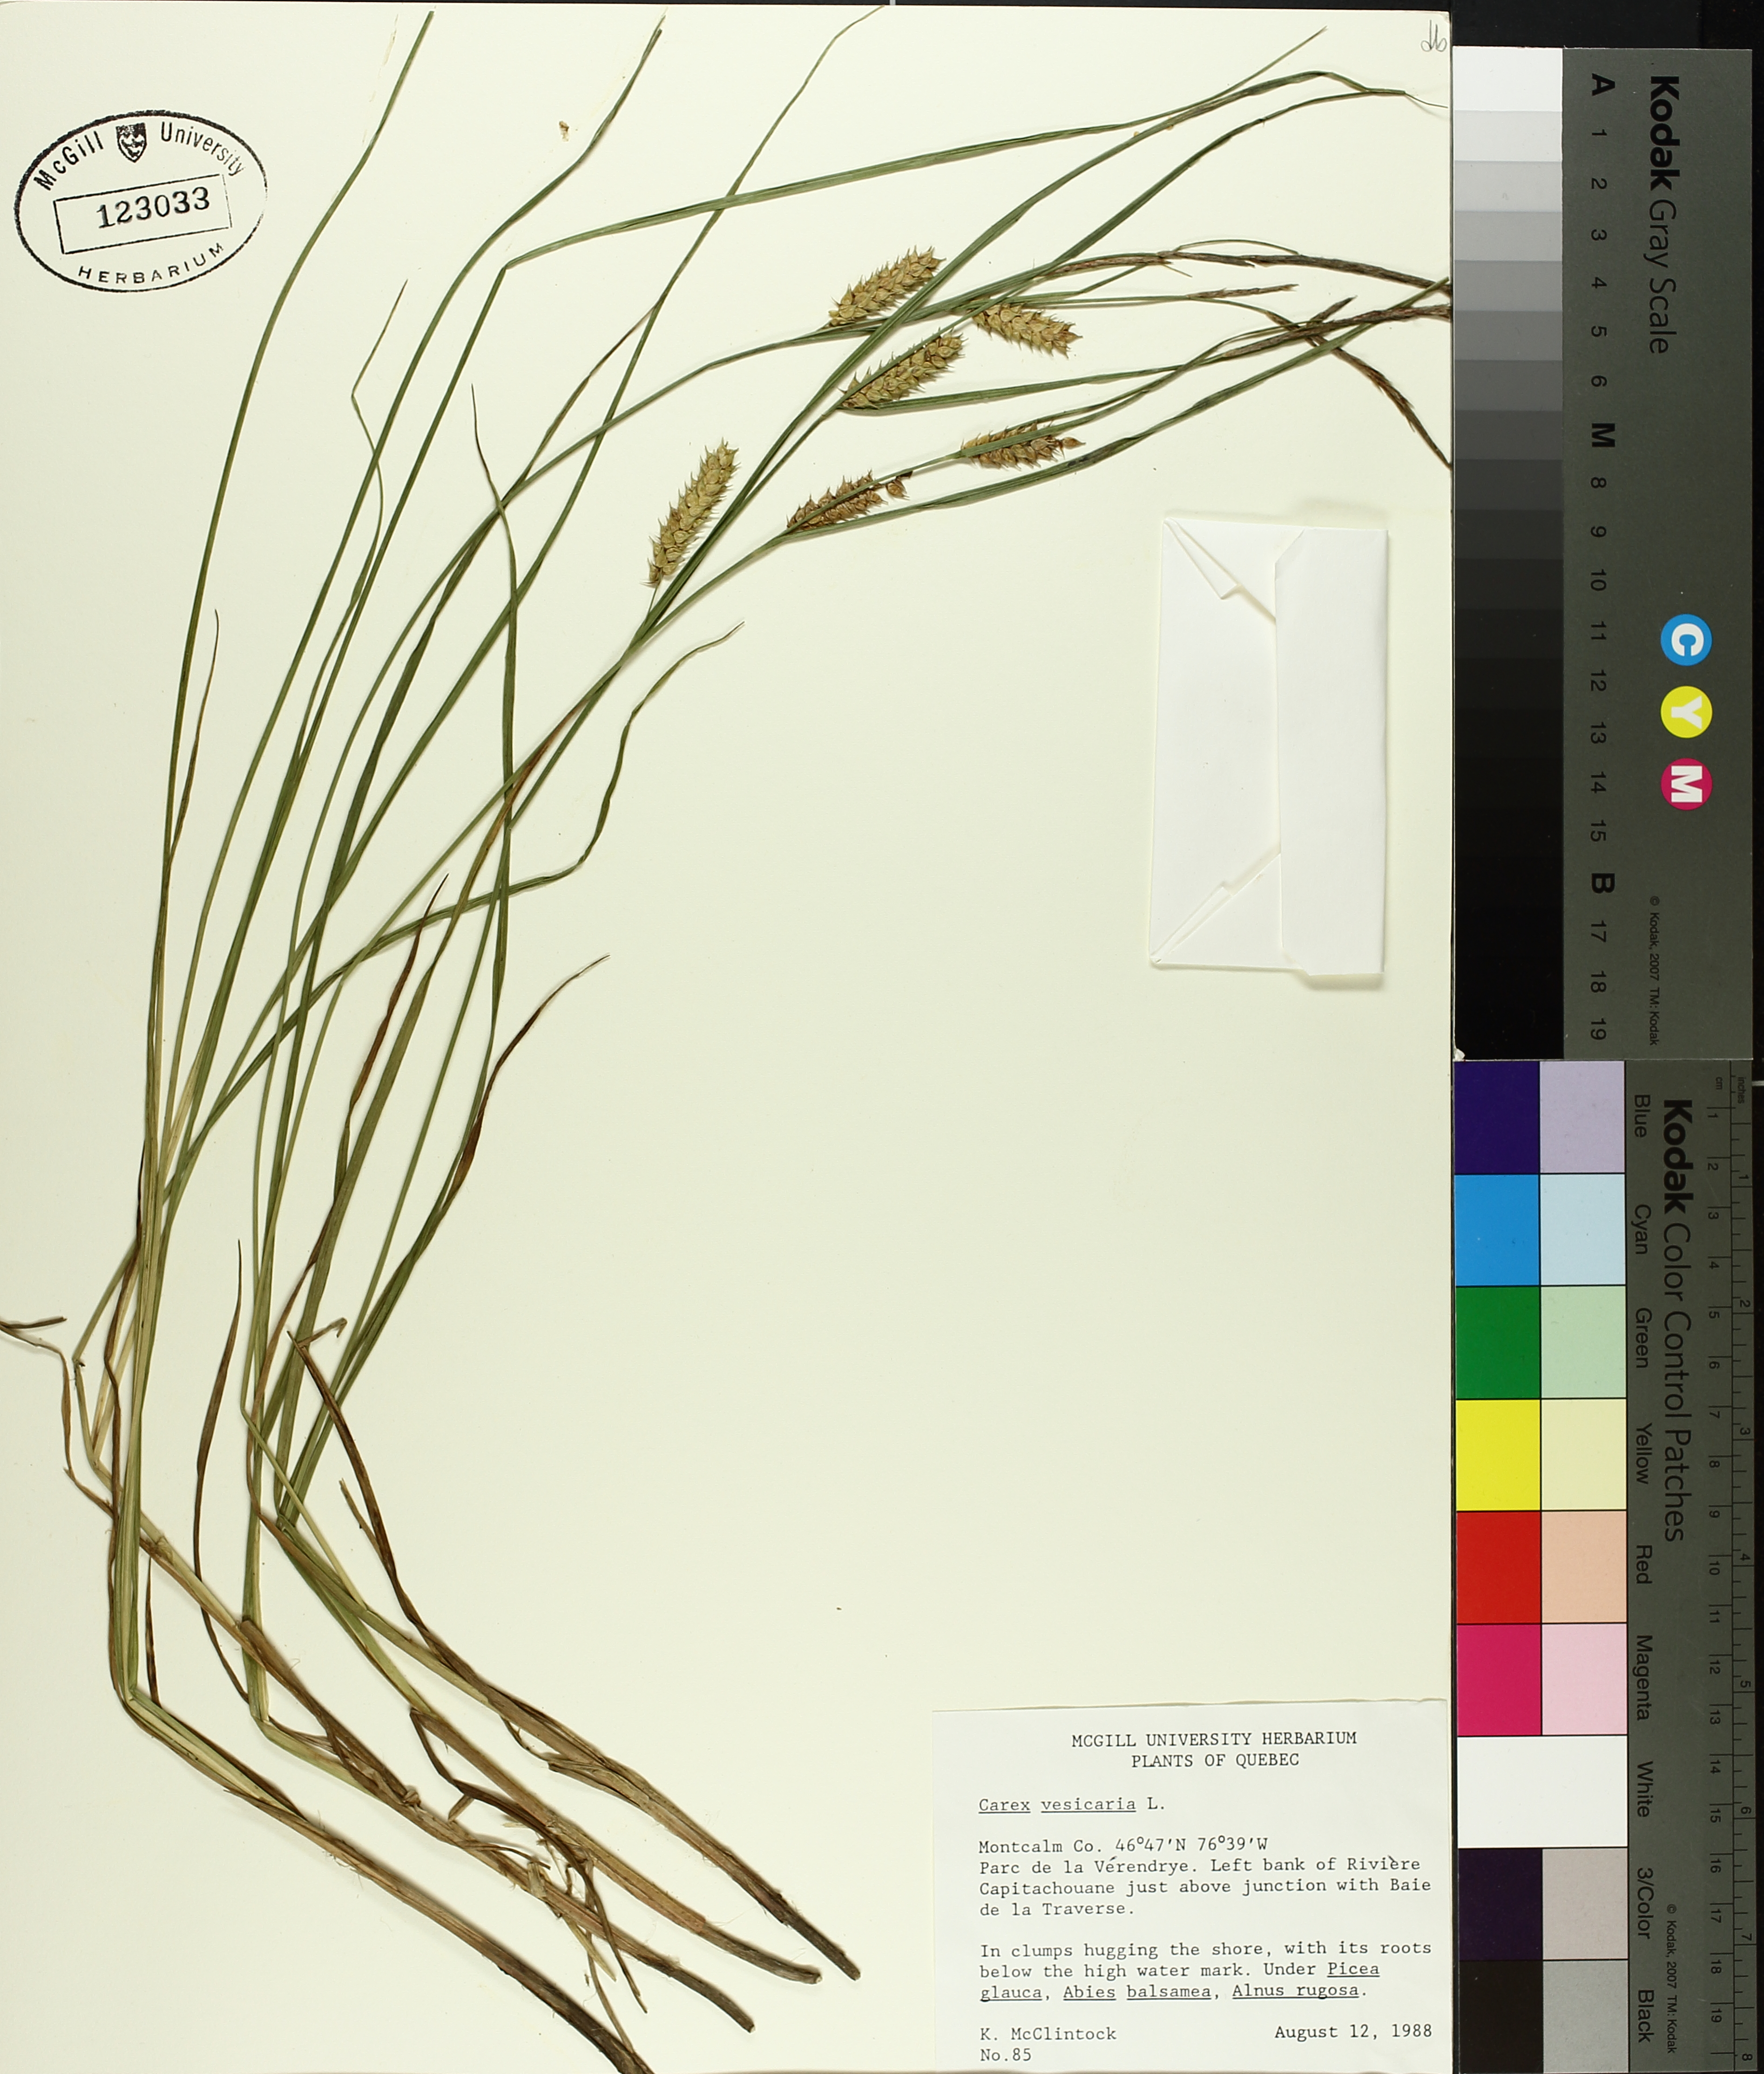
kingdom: Plantae
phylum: Tracheophyta
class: Liliopsida
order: Poales
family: Cyperaceae
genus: Carex
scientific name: Carex vesicaria
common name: Bladder-sedge
